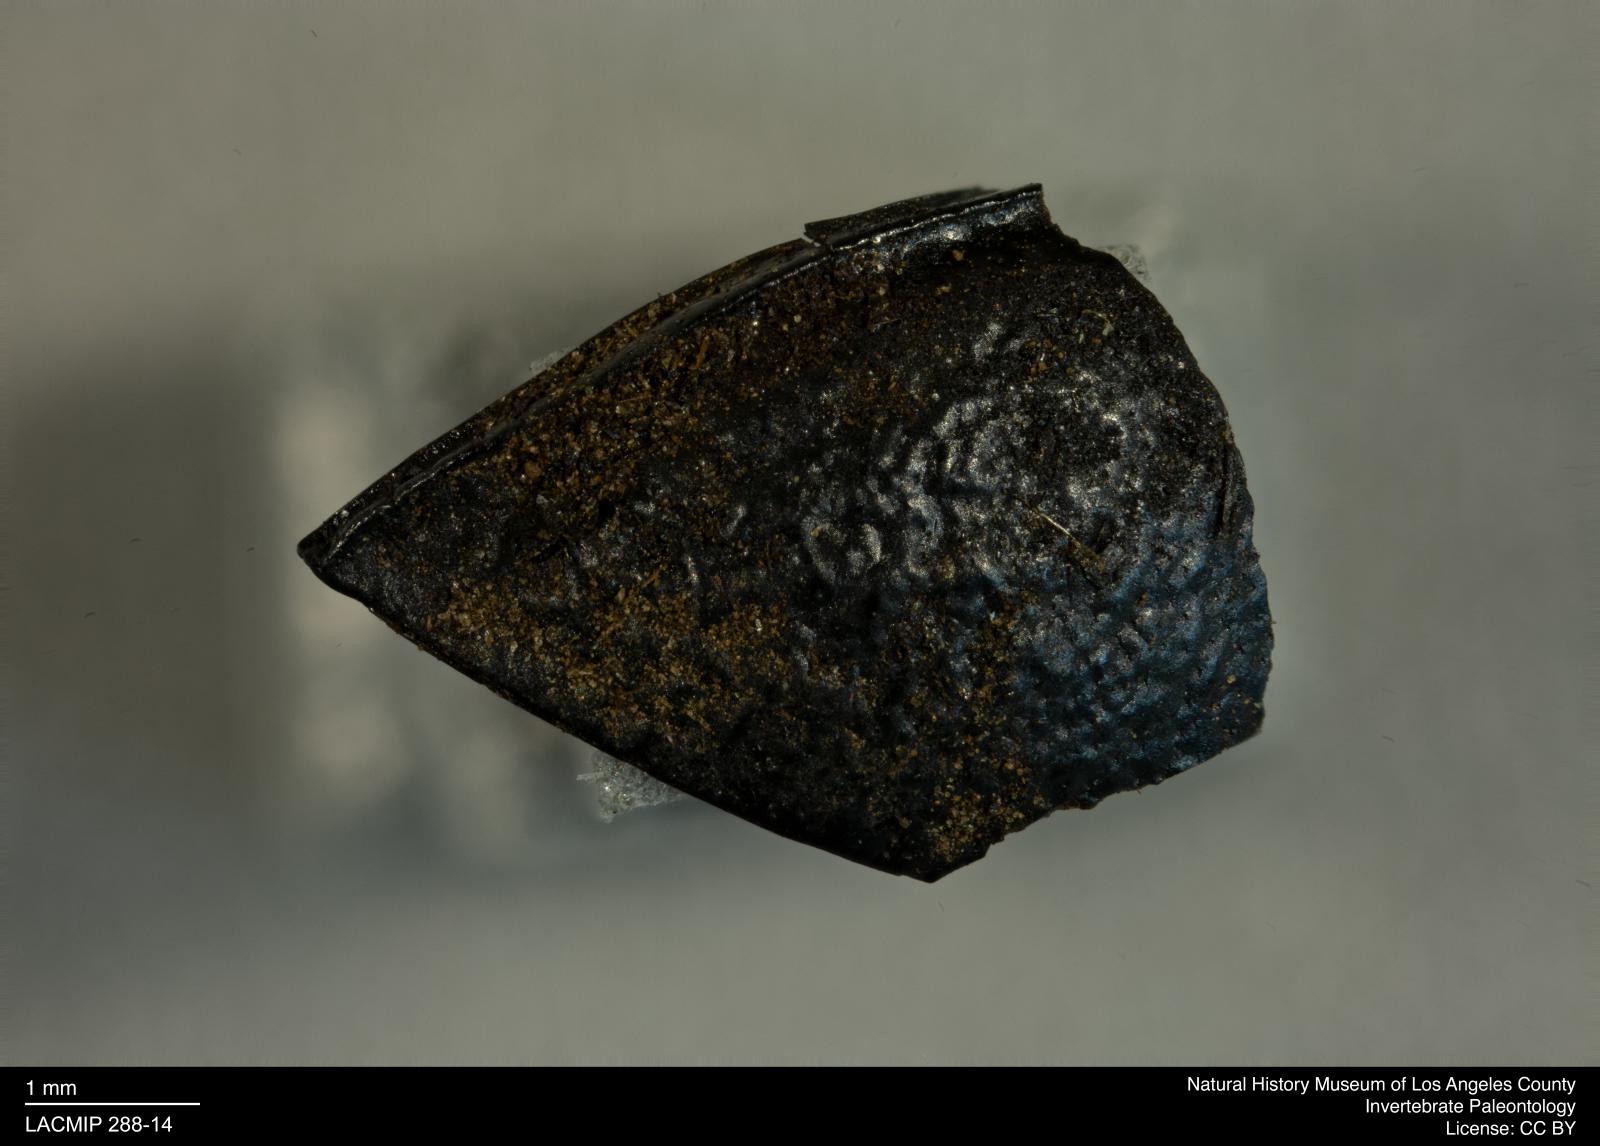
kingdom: Animalia
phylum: Arthropoda
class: Insecta
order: Coleoptera
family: Tenebrionidae
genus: Coniontis
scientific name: Coniontis abdominalis
